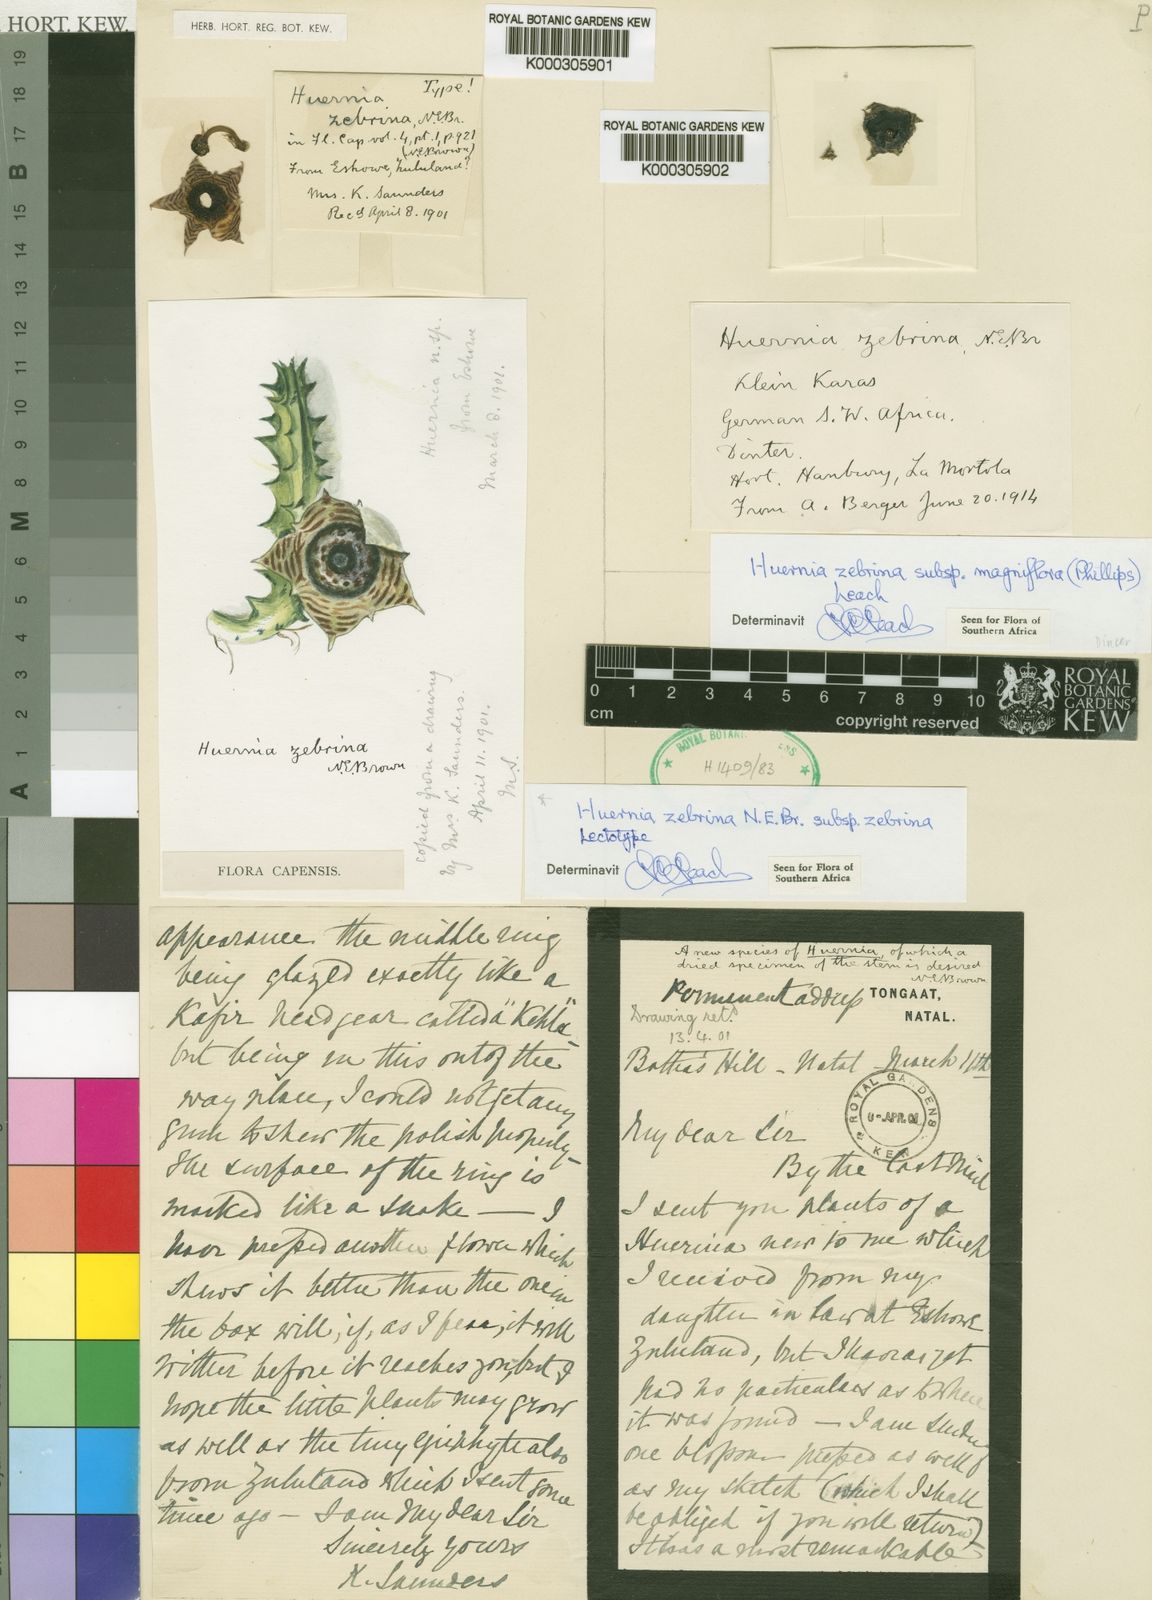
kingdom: Plantae
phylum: Tracheophyta
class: Magnoliopsida
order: Gentianales
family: Apocynaceae
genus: Ceropegia
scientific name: Ceropegia zebrina
